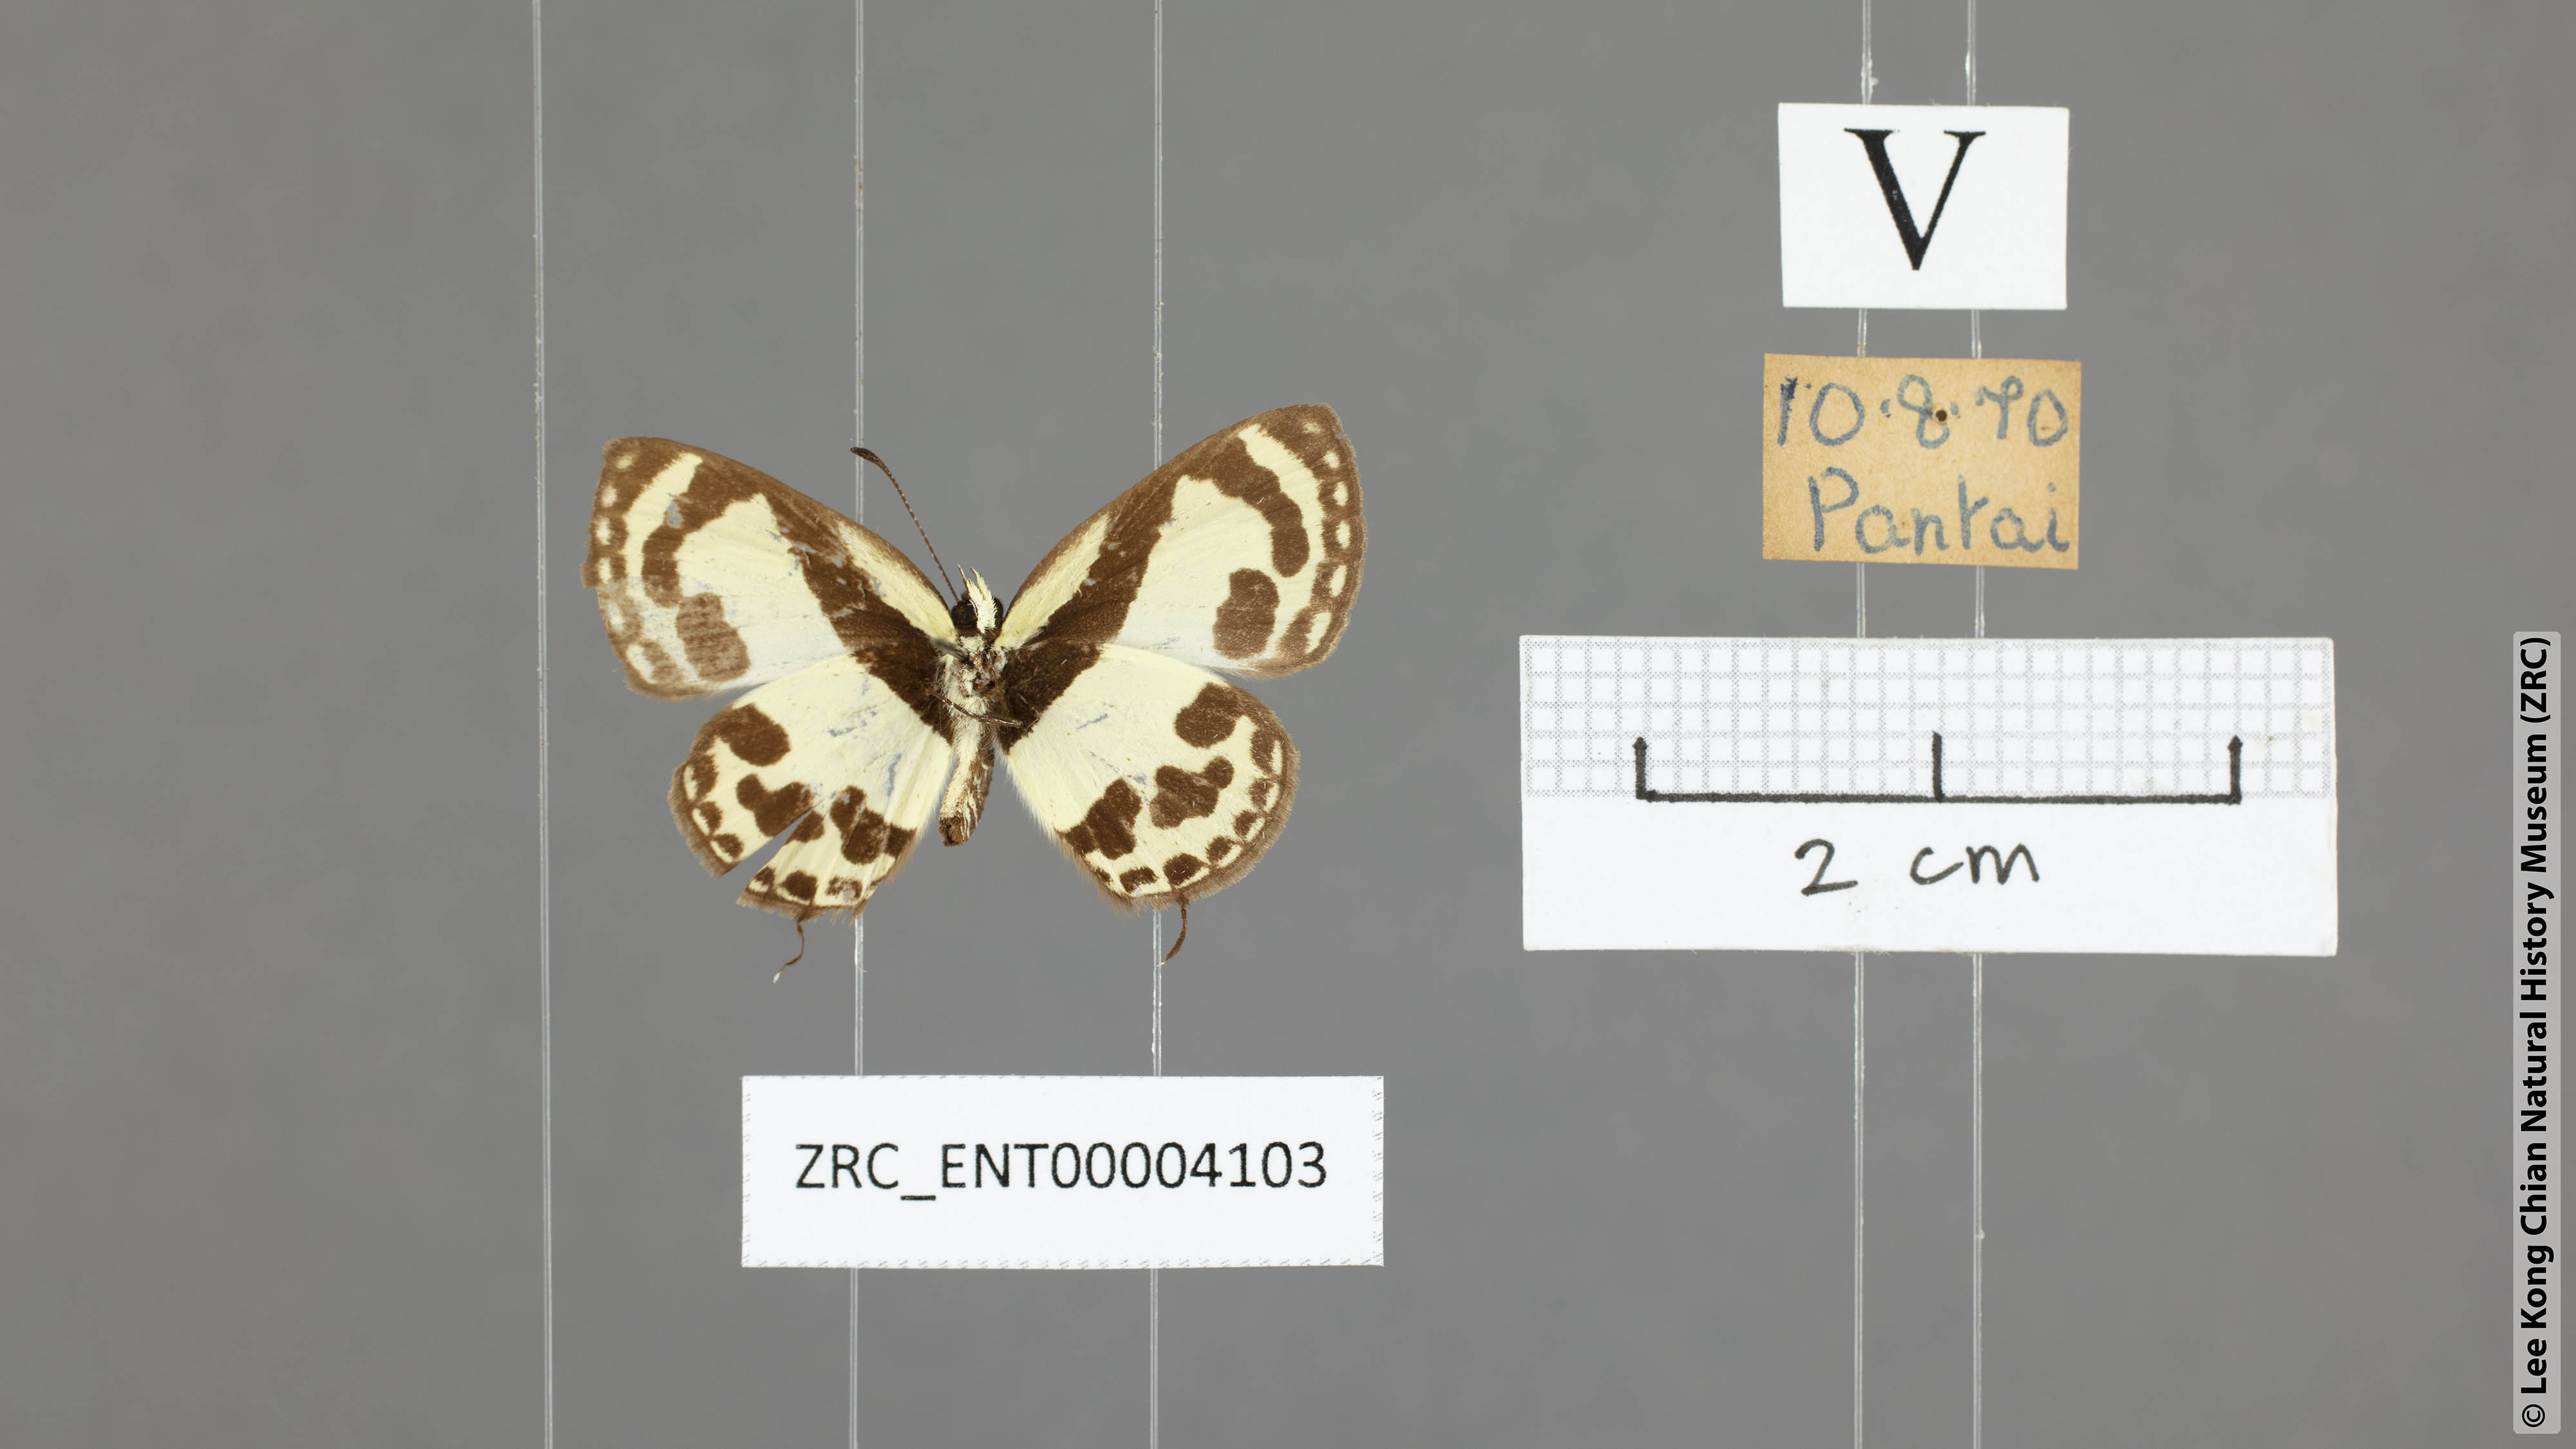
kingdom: Animalia
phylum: Arthropoda
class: Insecta
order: Lepidoptera
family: Lycaenidae
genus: Caleta
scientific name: Caleta roxus
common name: Straight pierrot
